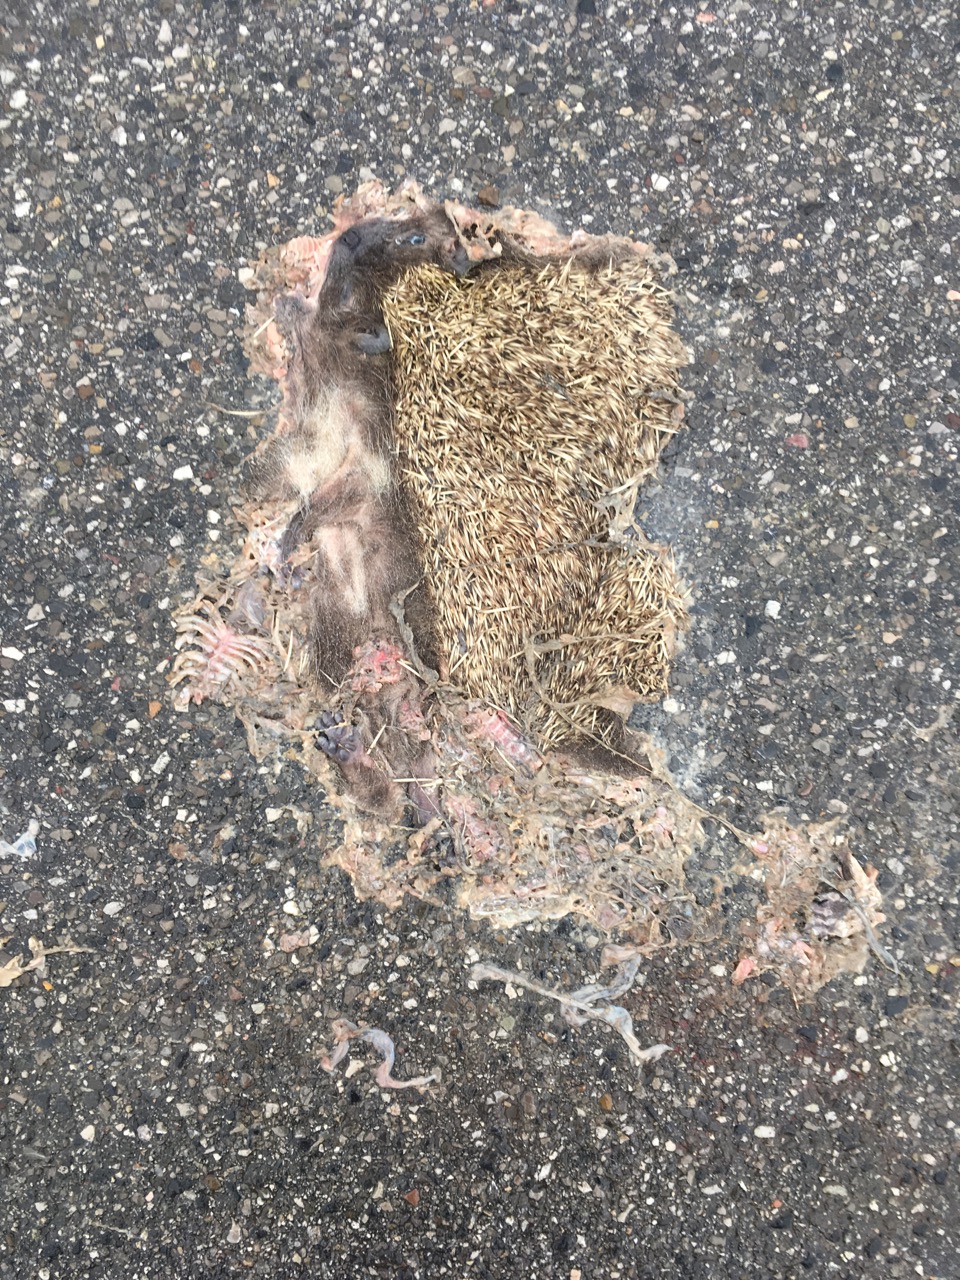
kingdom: Animalia
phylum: Chordata
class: Mammalia
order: Erinaceomorpha
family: Erinaceidae
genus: Erinaceus
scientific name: Erinaceus
